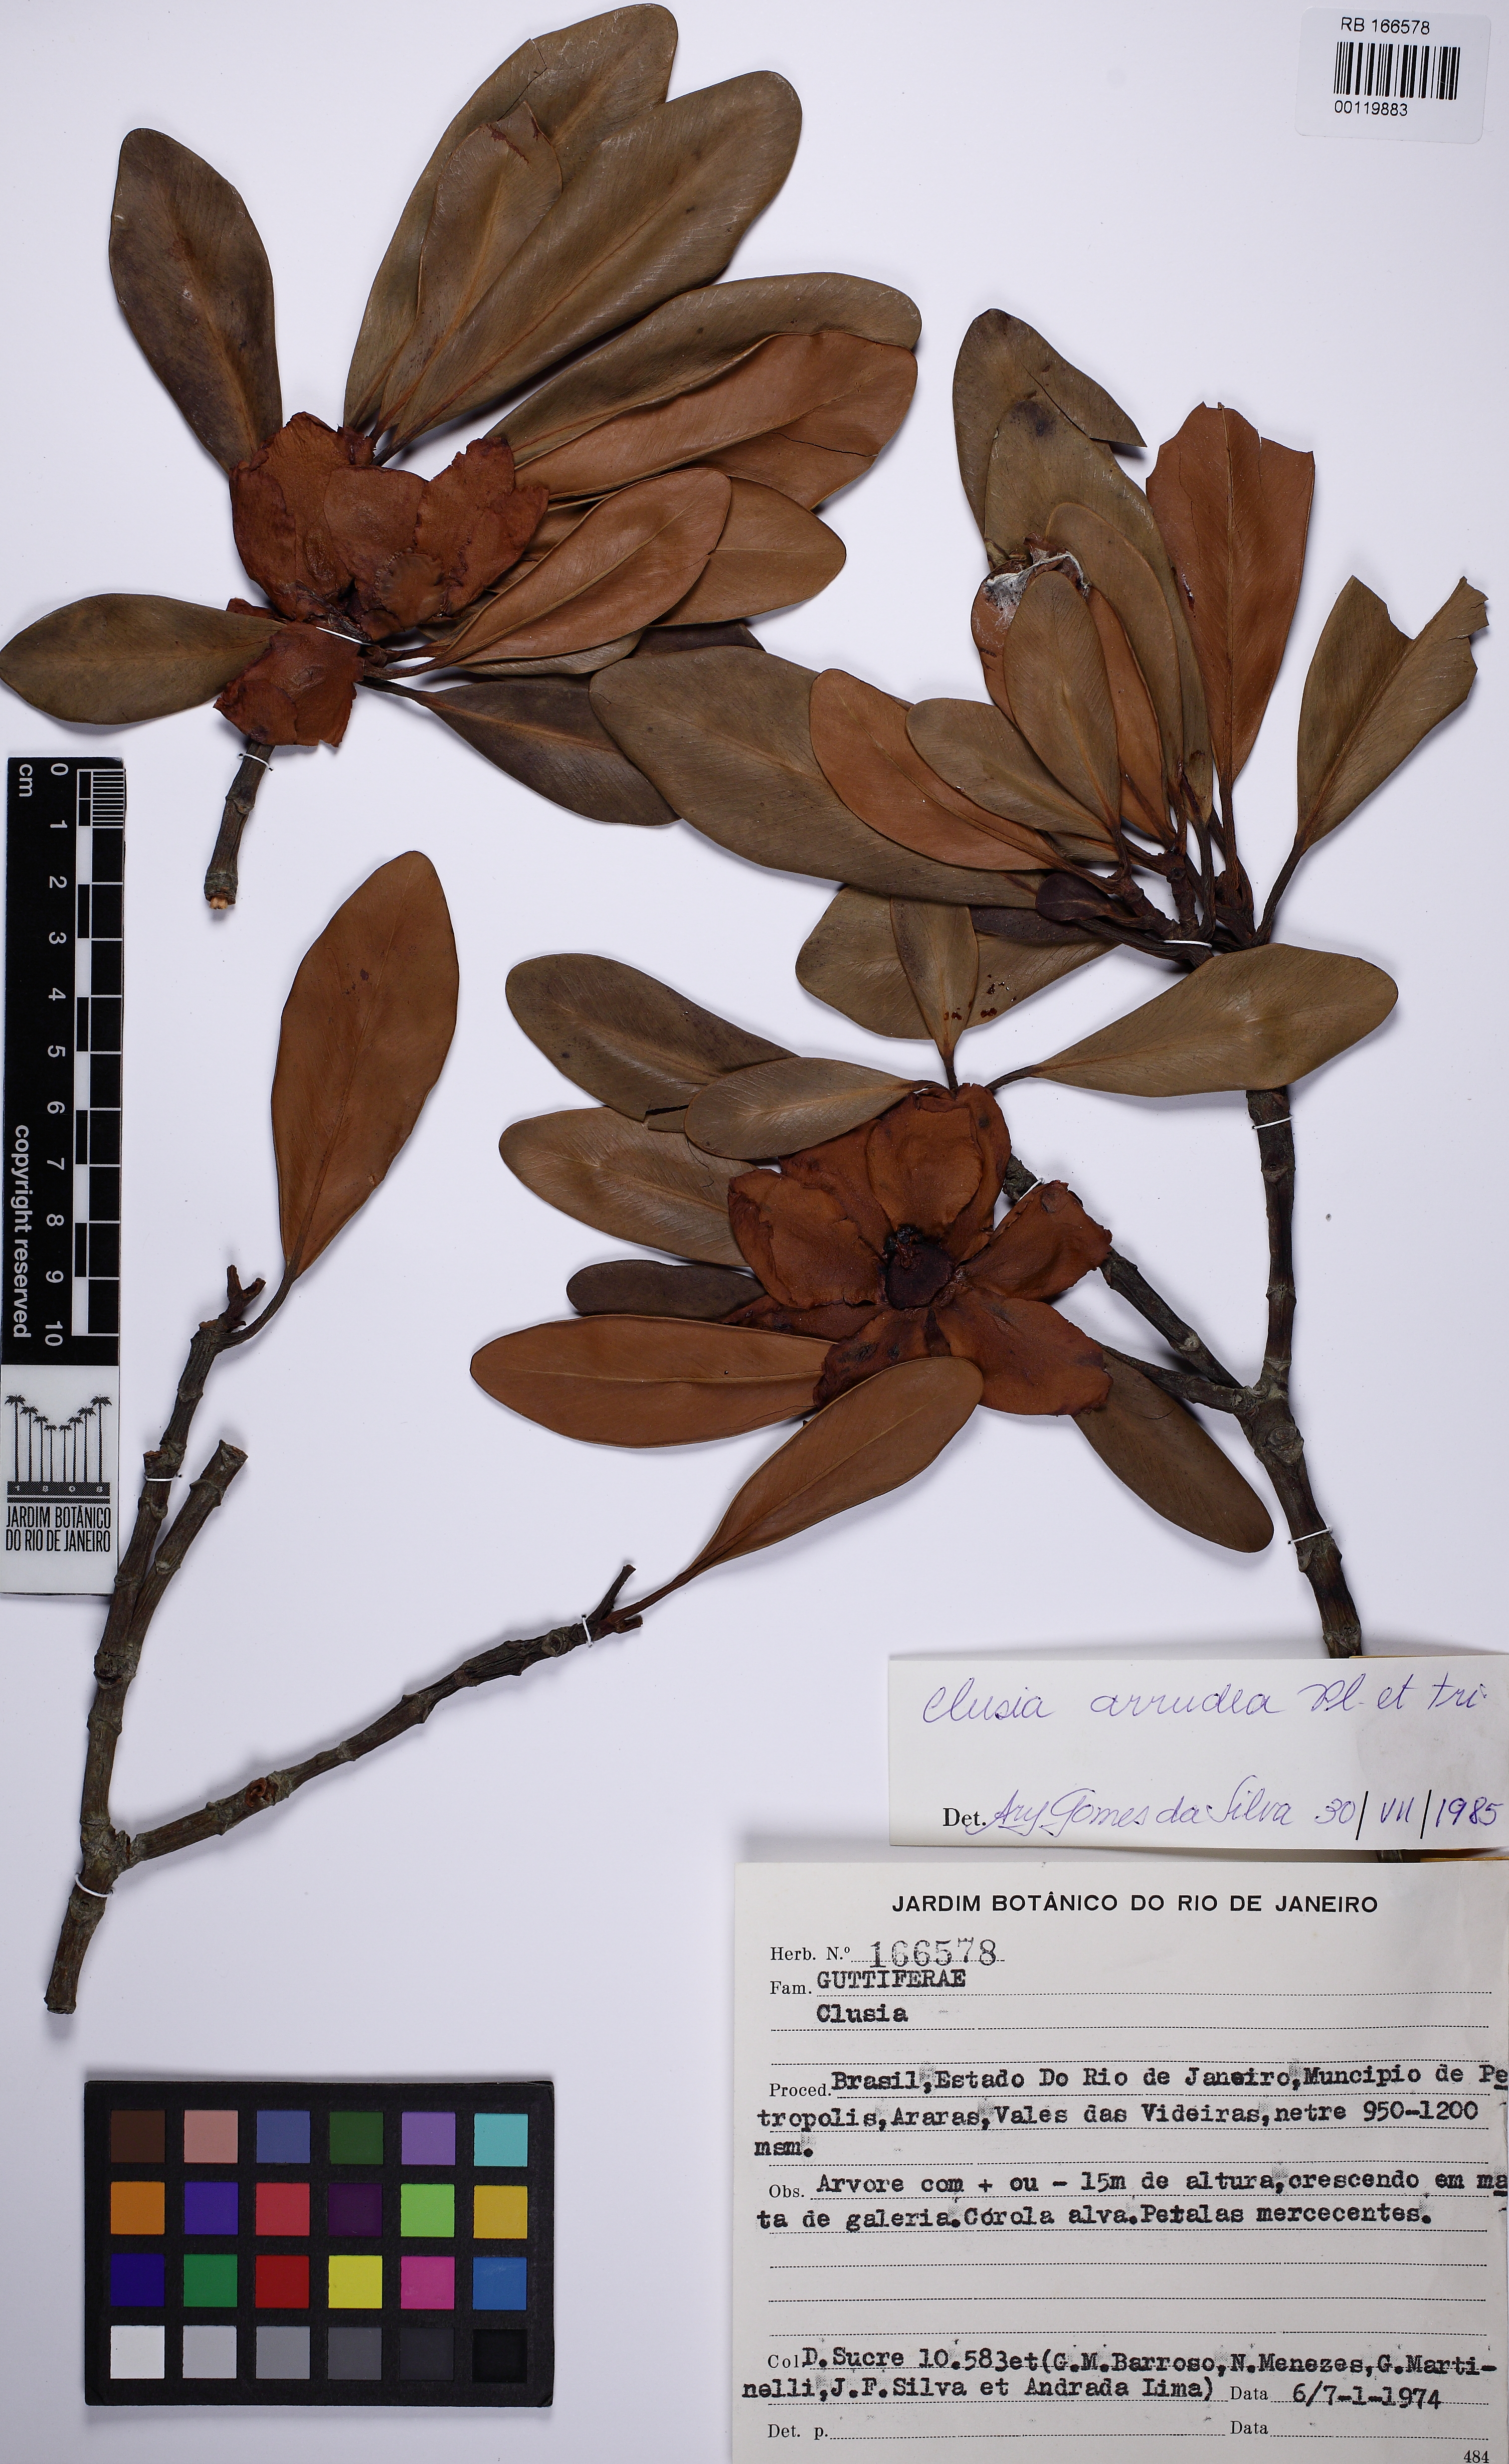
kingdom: Plantae
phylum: Tracheophyta
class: Magnoliopsida
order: Malpighiales
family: Clusiaceae
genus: Clusia
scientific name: Clusia mexiae
